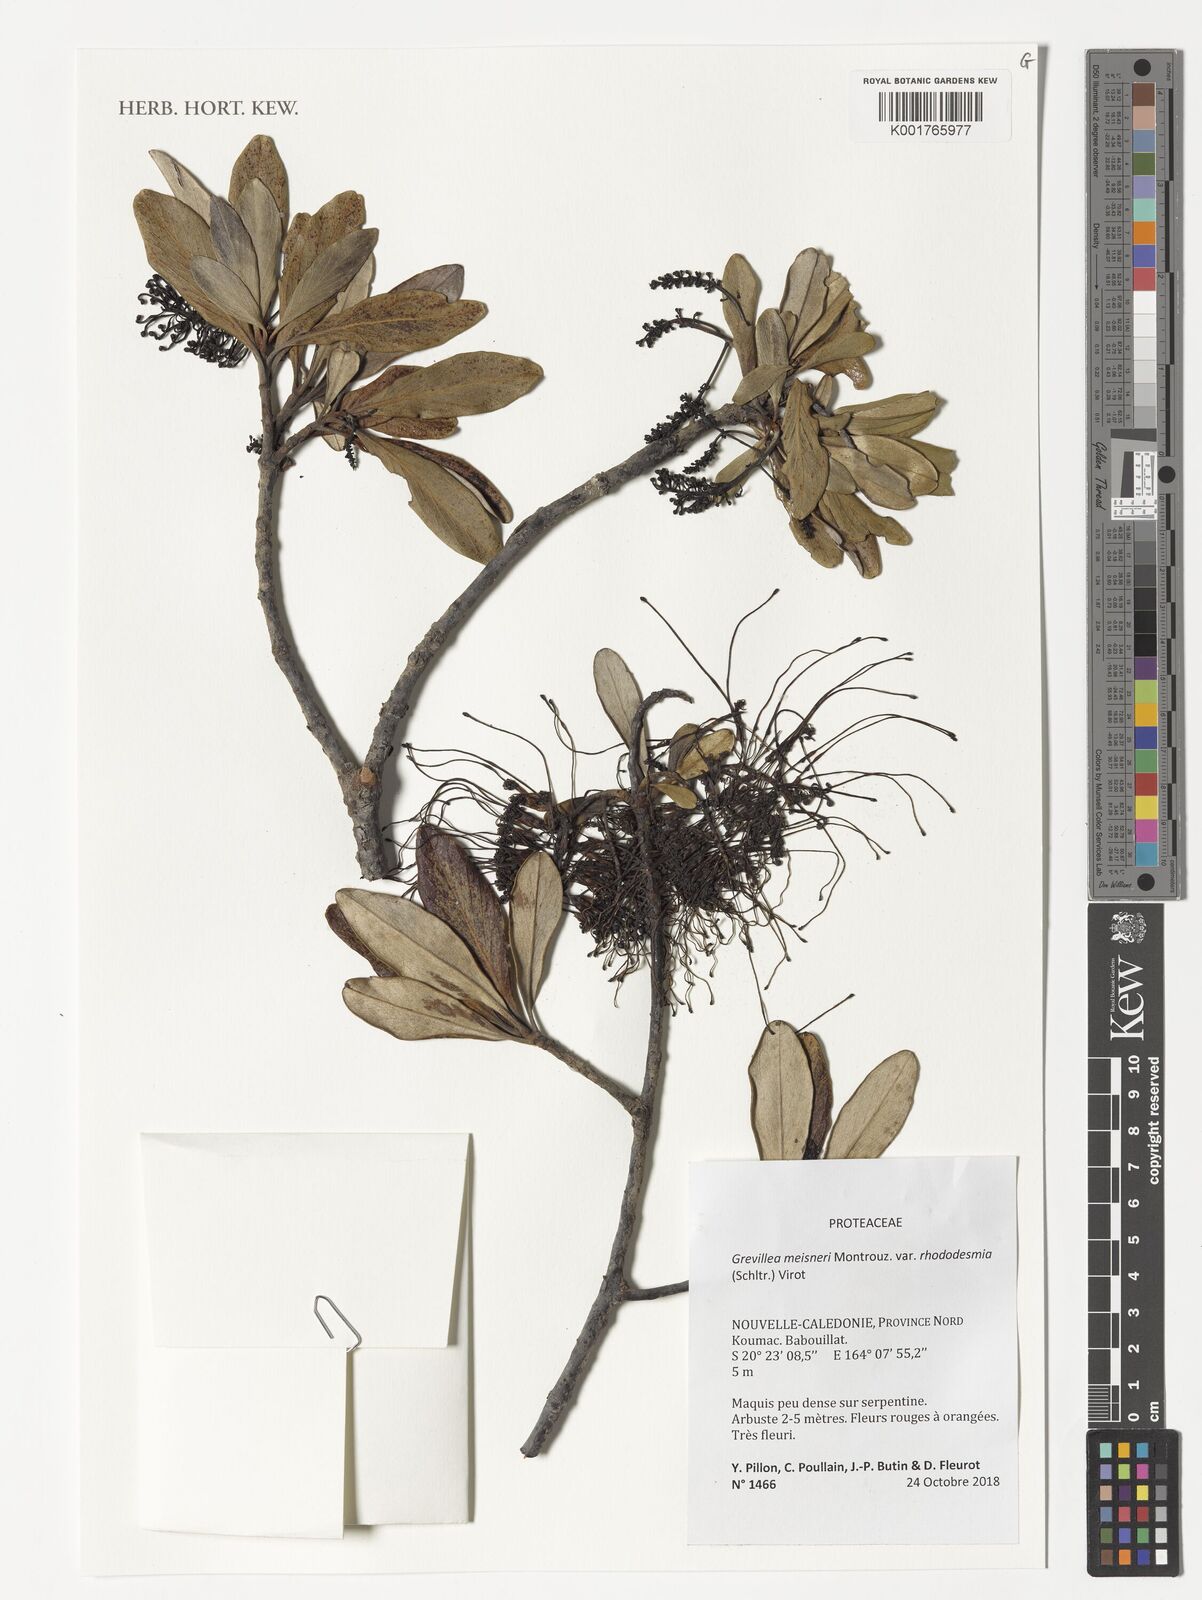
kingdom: Plantae
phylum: Tracheophyta
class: Magnoliopsida
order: Proteales
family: Proteaceae
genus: Grevillea
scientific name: Grevillea meisneri
